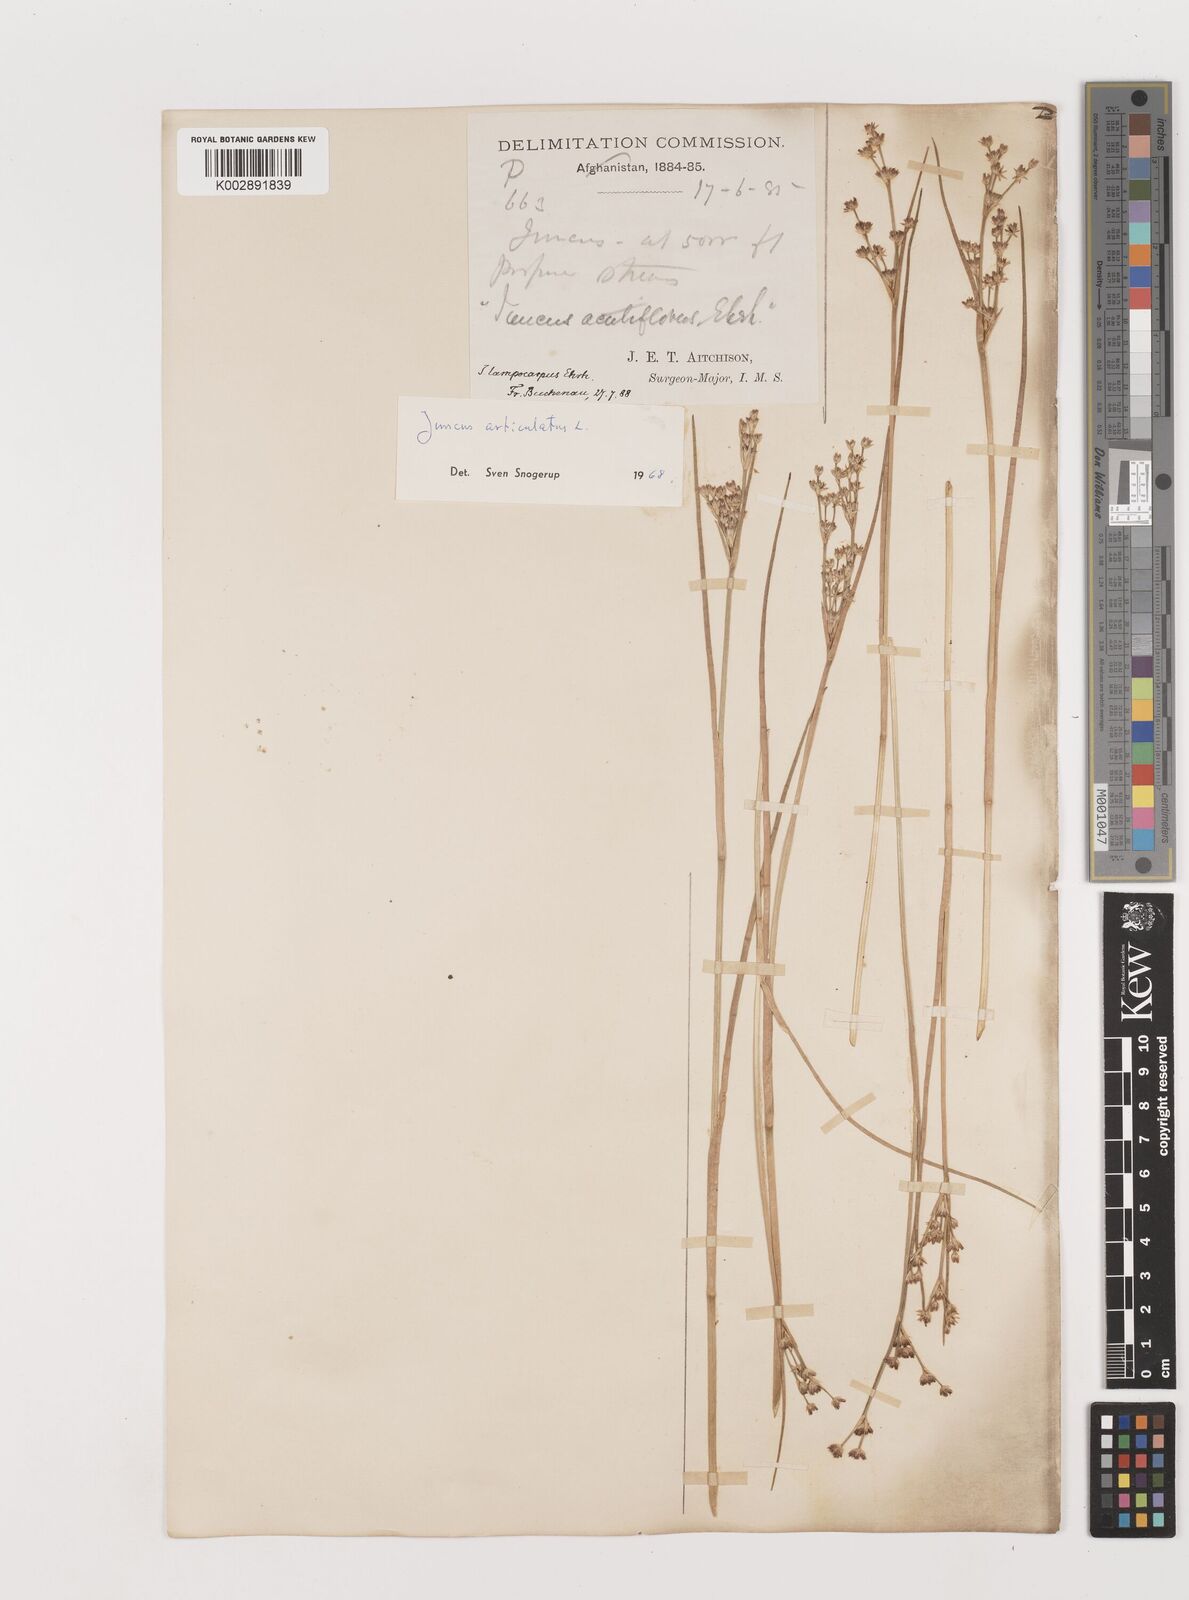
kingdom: Plantae
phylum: Tracheophyta
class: Liliopsida
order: Poales
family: Juncaceae
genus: Juncus
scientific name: Juncus articulatus
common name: Jointed rush
